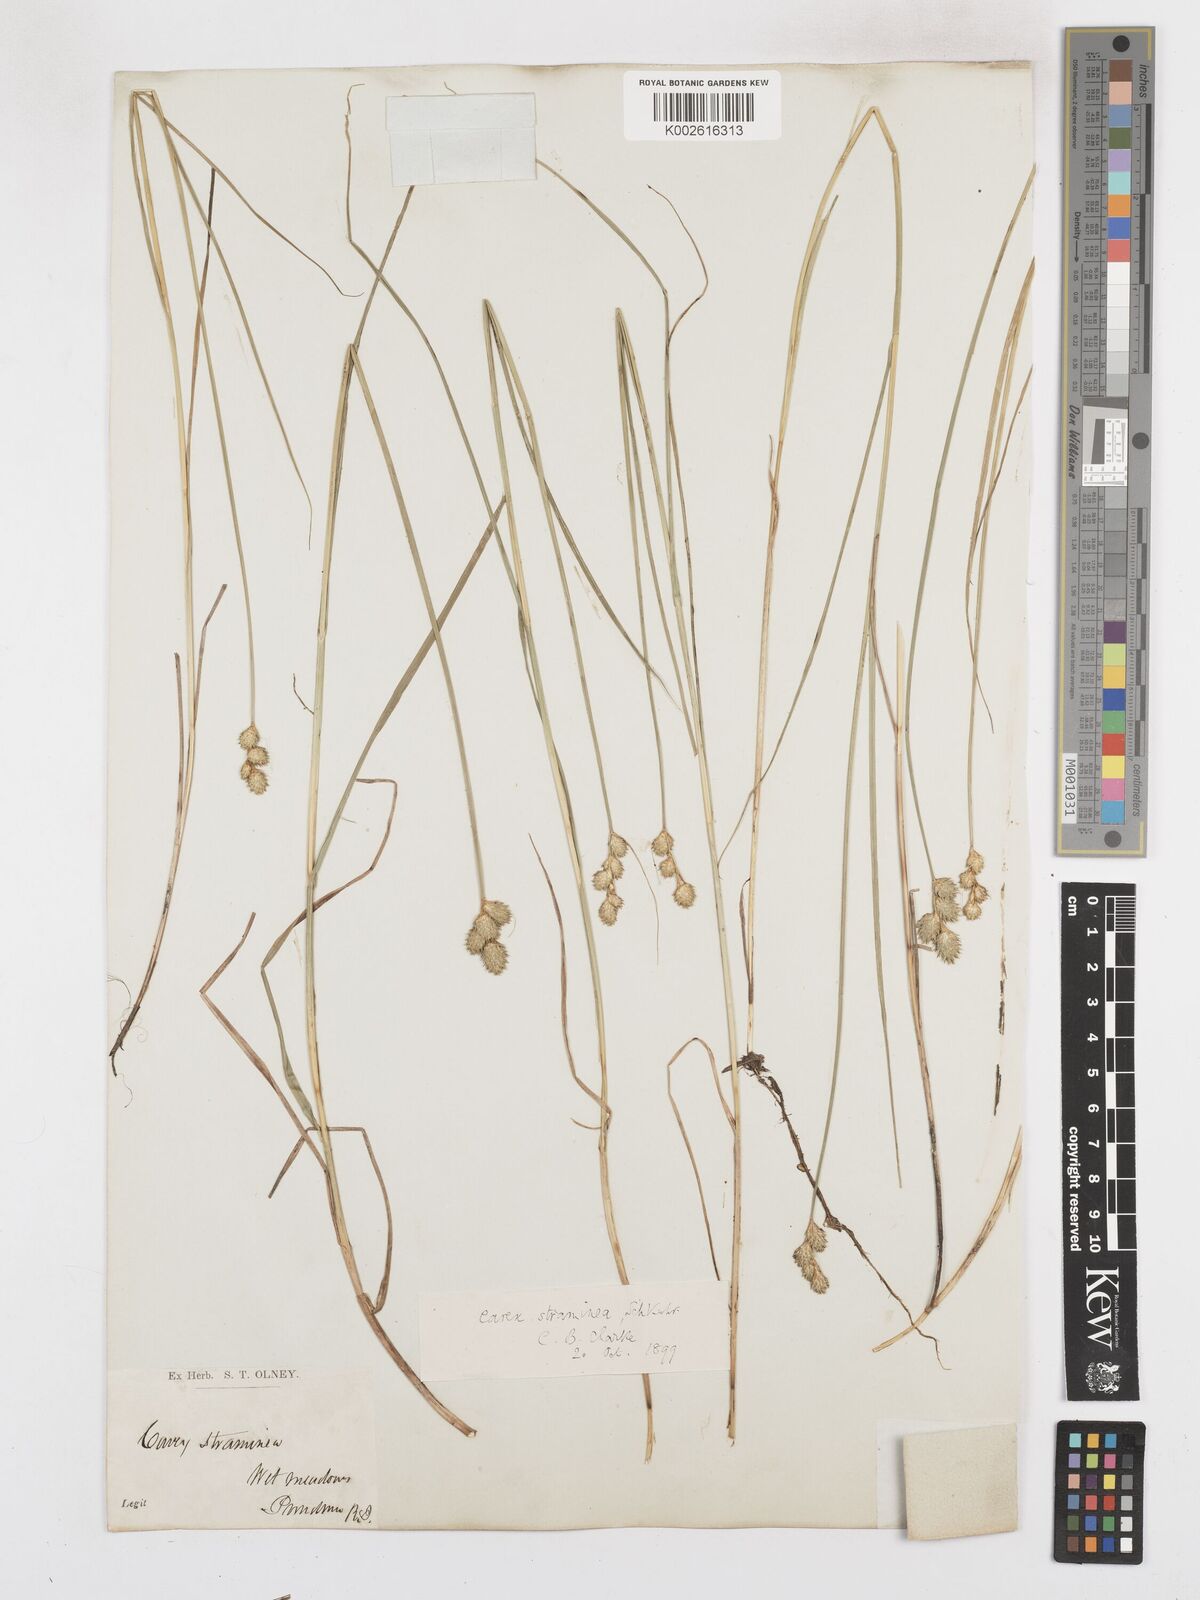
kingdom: Plantae
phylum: Tracheophyta
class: Liliopsida
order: Poales
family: Cyperaceae
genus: Carex
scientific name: Carex albolutescens
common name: Freenish white sedge
